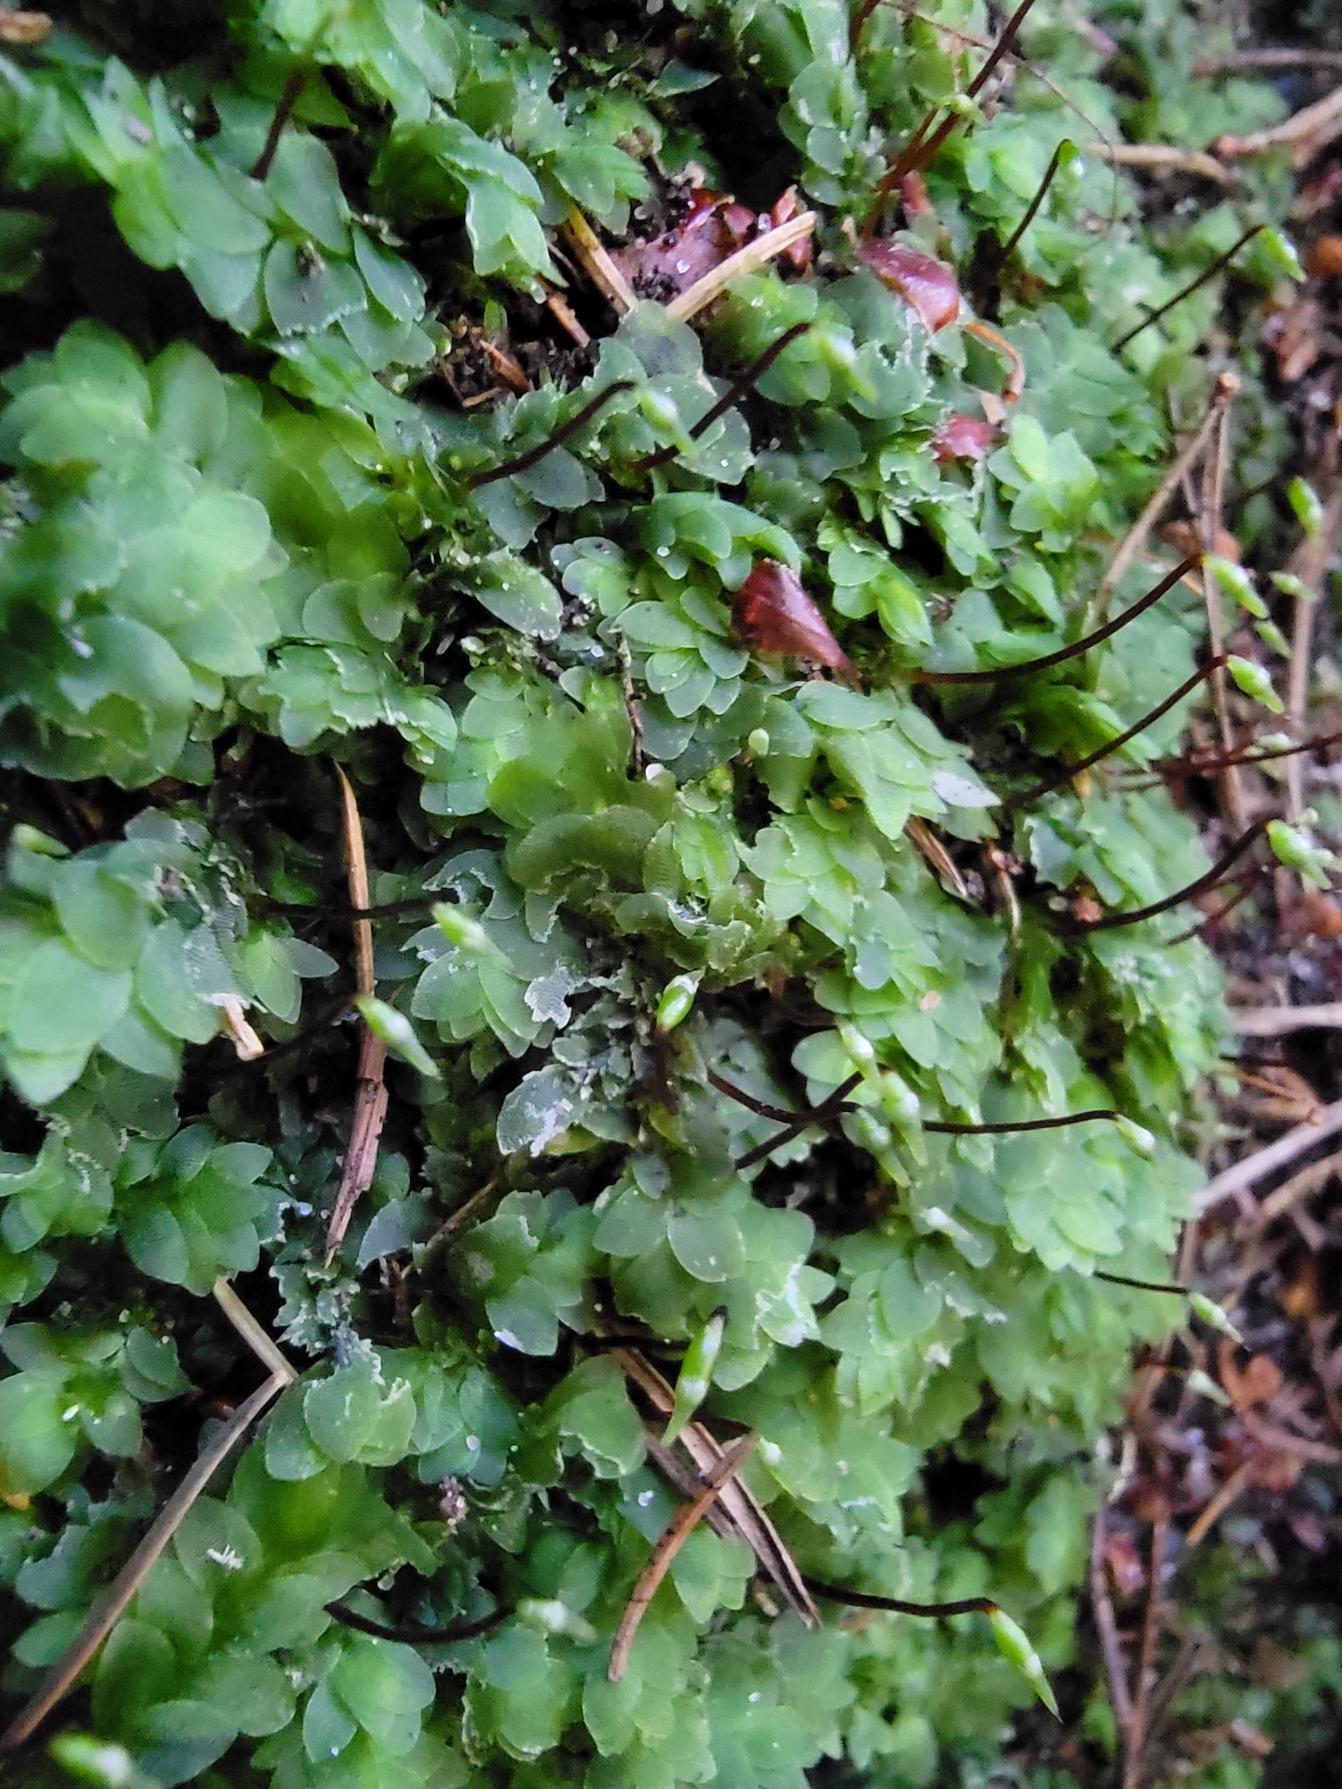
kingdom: Plantae
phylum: Bryophyta
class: Bryopsida
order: Hookeriales
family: Hookeriaceae
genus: Hookeria
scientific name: Hookeria lucens
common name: Skinnende dronningemos
